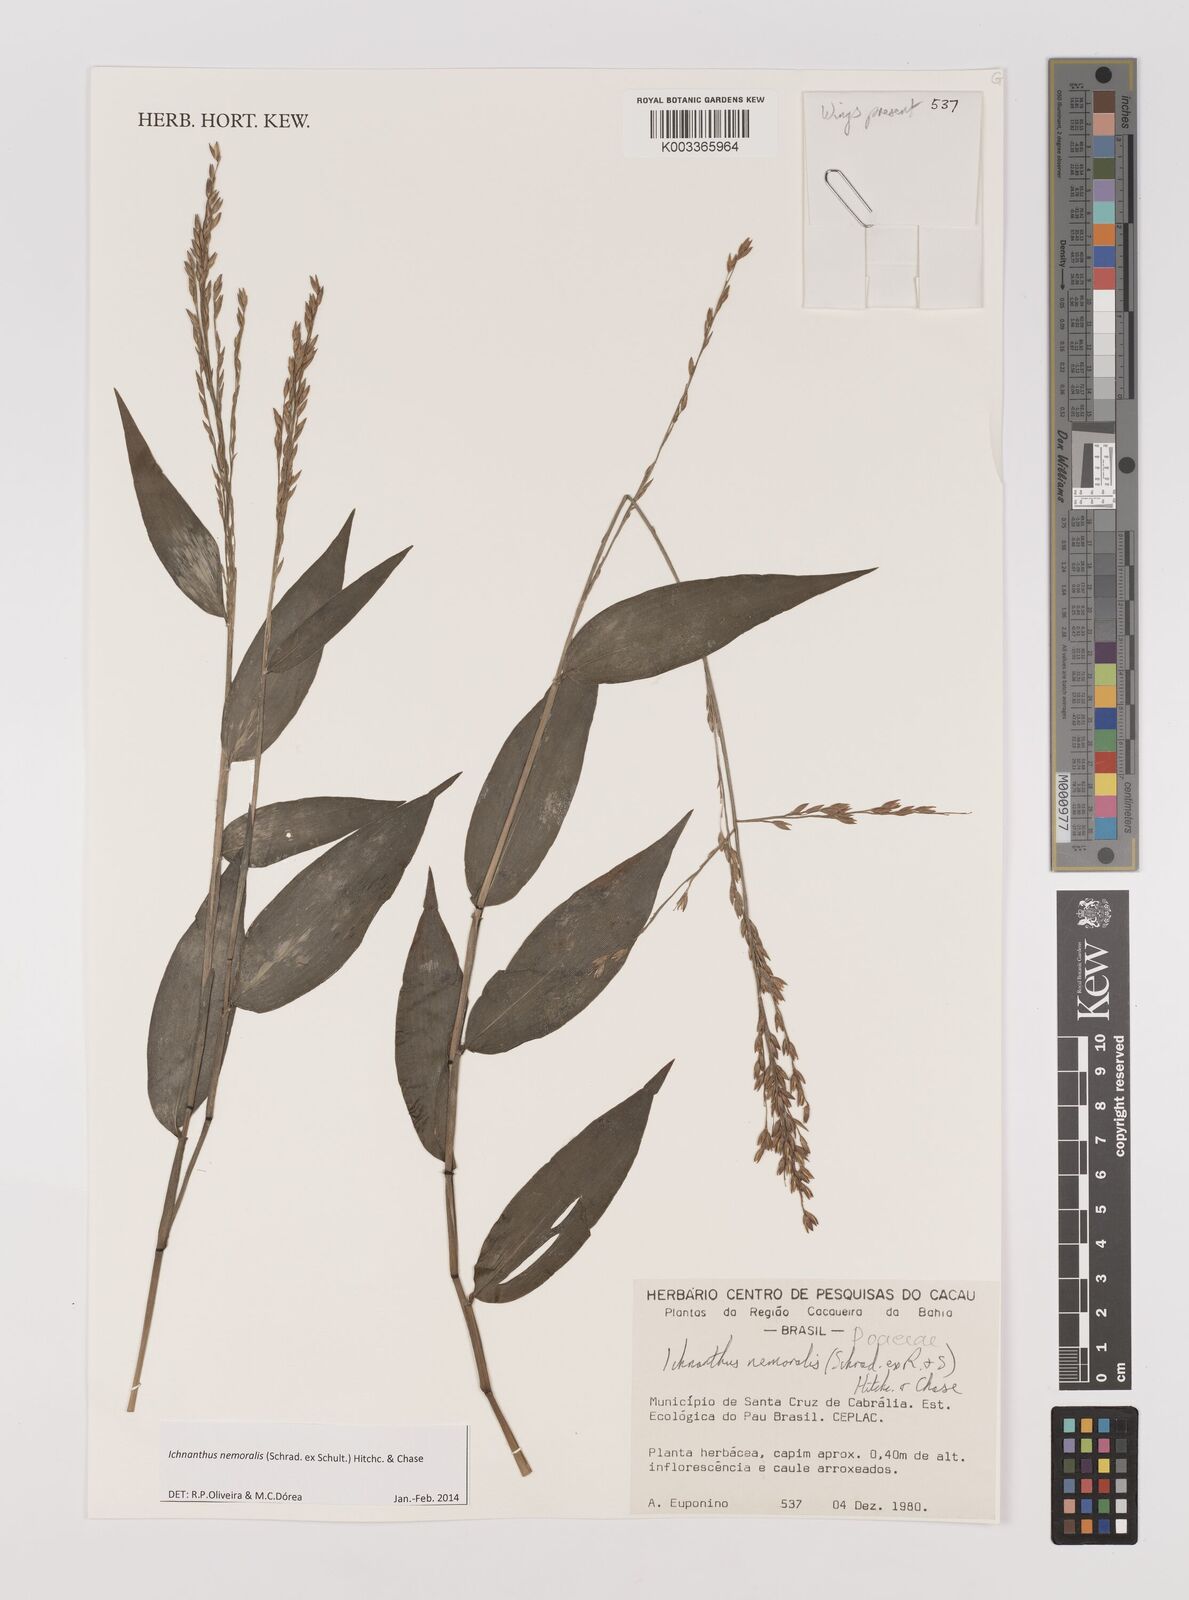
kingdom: Plantae
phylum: Tracheophyta
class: Liliopsida
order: Poales
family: Poaceae
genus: Ichnanthus
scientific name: Ichnanthus nemoralis
